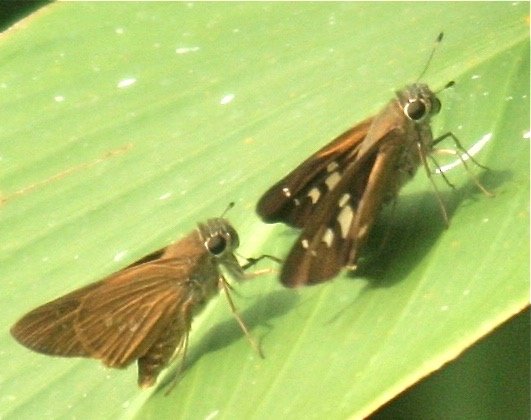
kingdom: Animalia
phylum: Arthropoda
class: Insecta
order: Lepidoptera
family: Hesperiidae
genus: Calpodes
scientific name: Calpodes ethlius
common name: Brazilian Skipper
